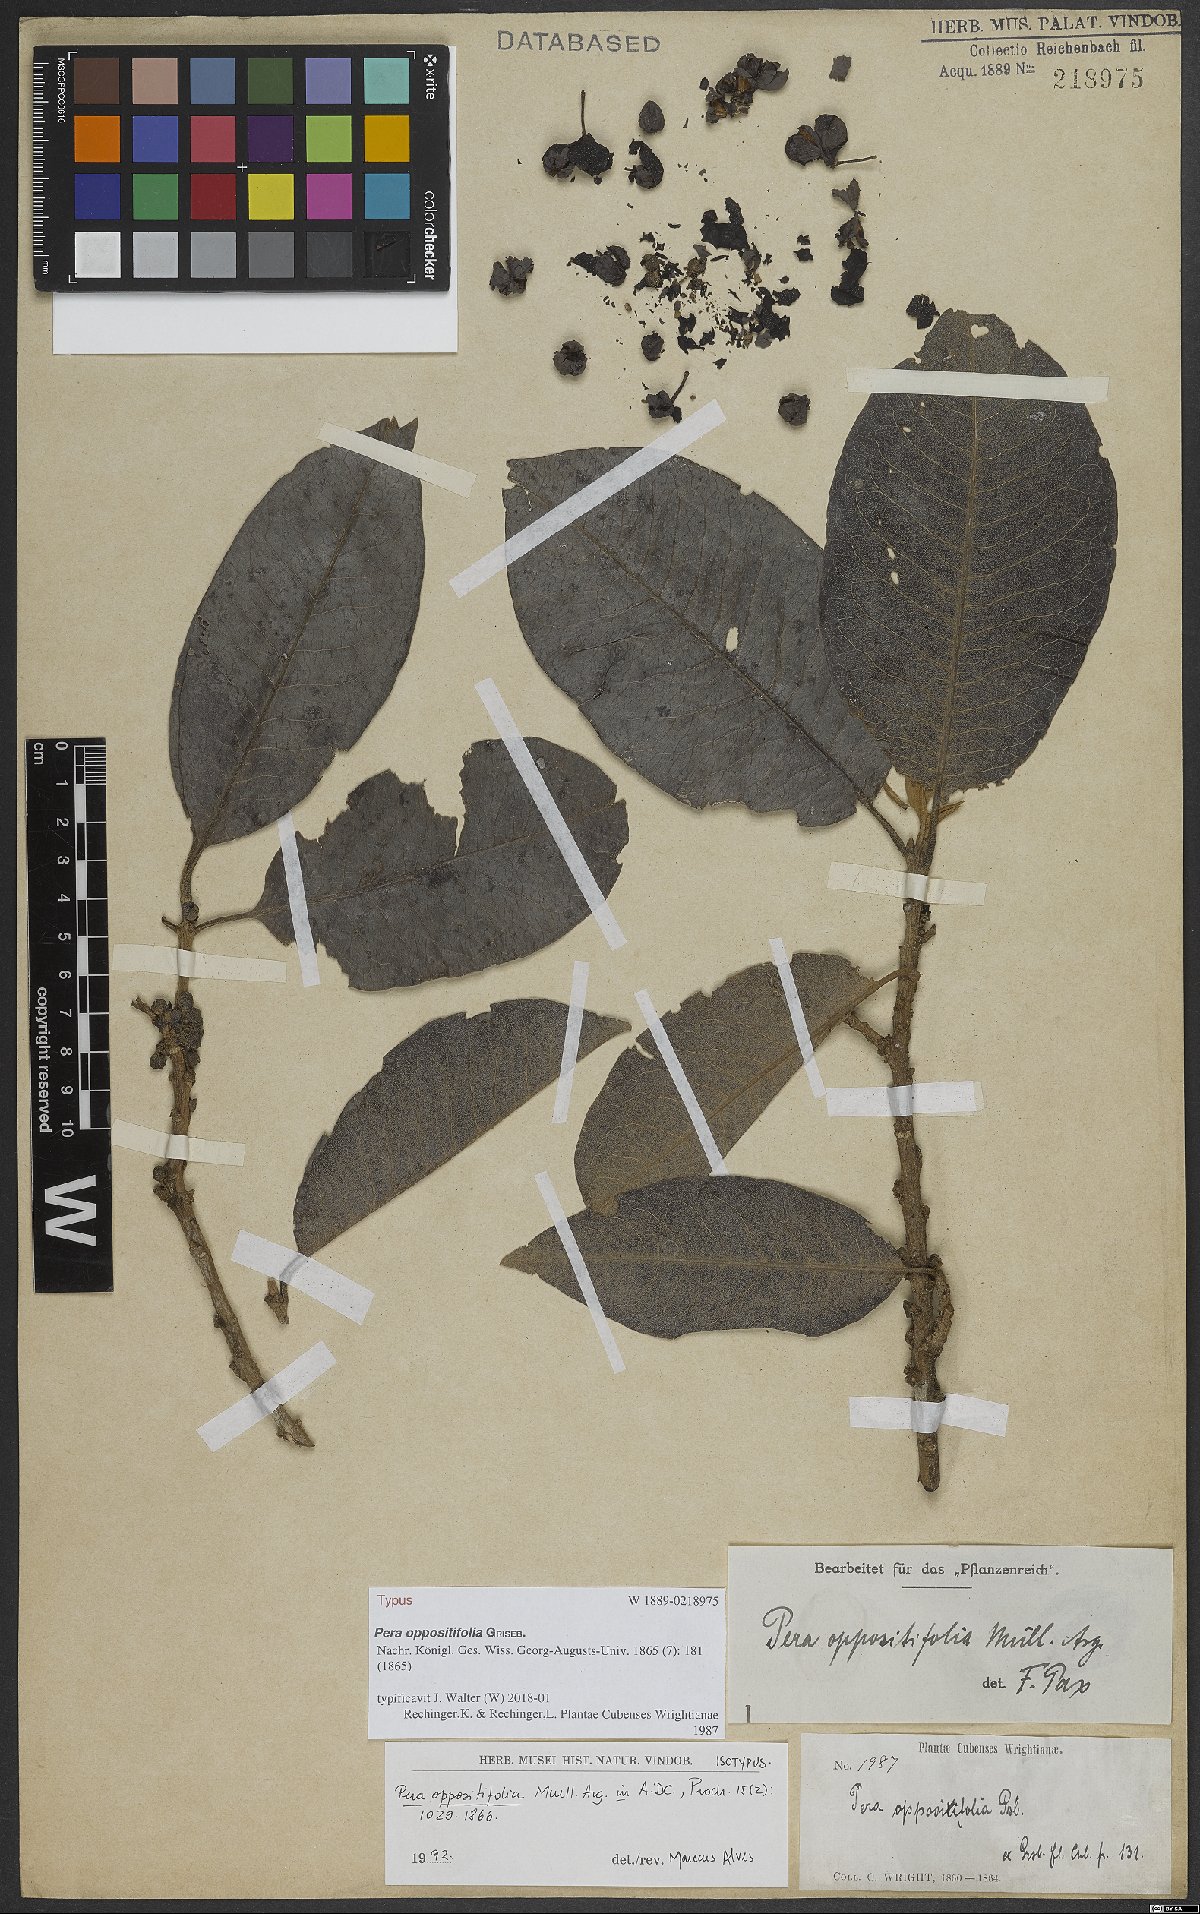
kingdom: Plantae
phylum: Tracheophyta
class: Magnoliopsida
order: Malpighiales
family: Peraceae
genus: Pera
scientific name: Pera oppositifolia
